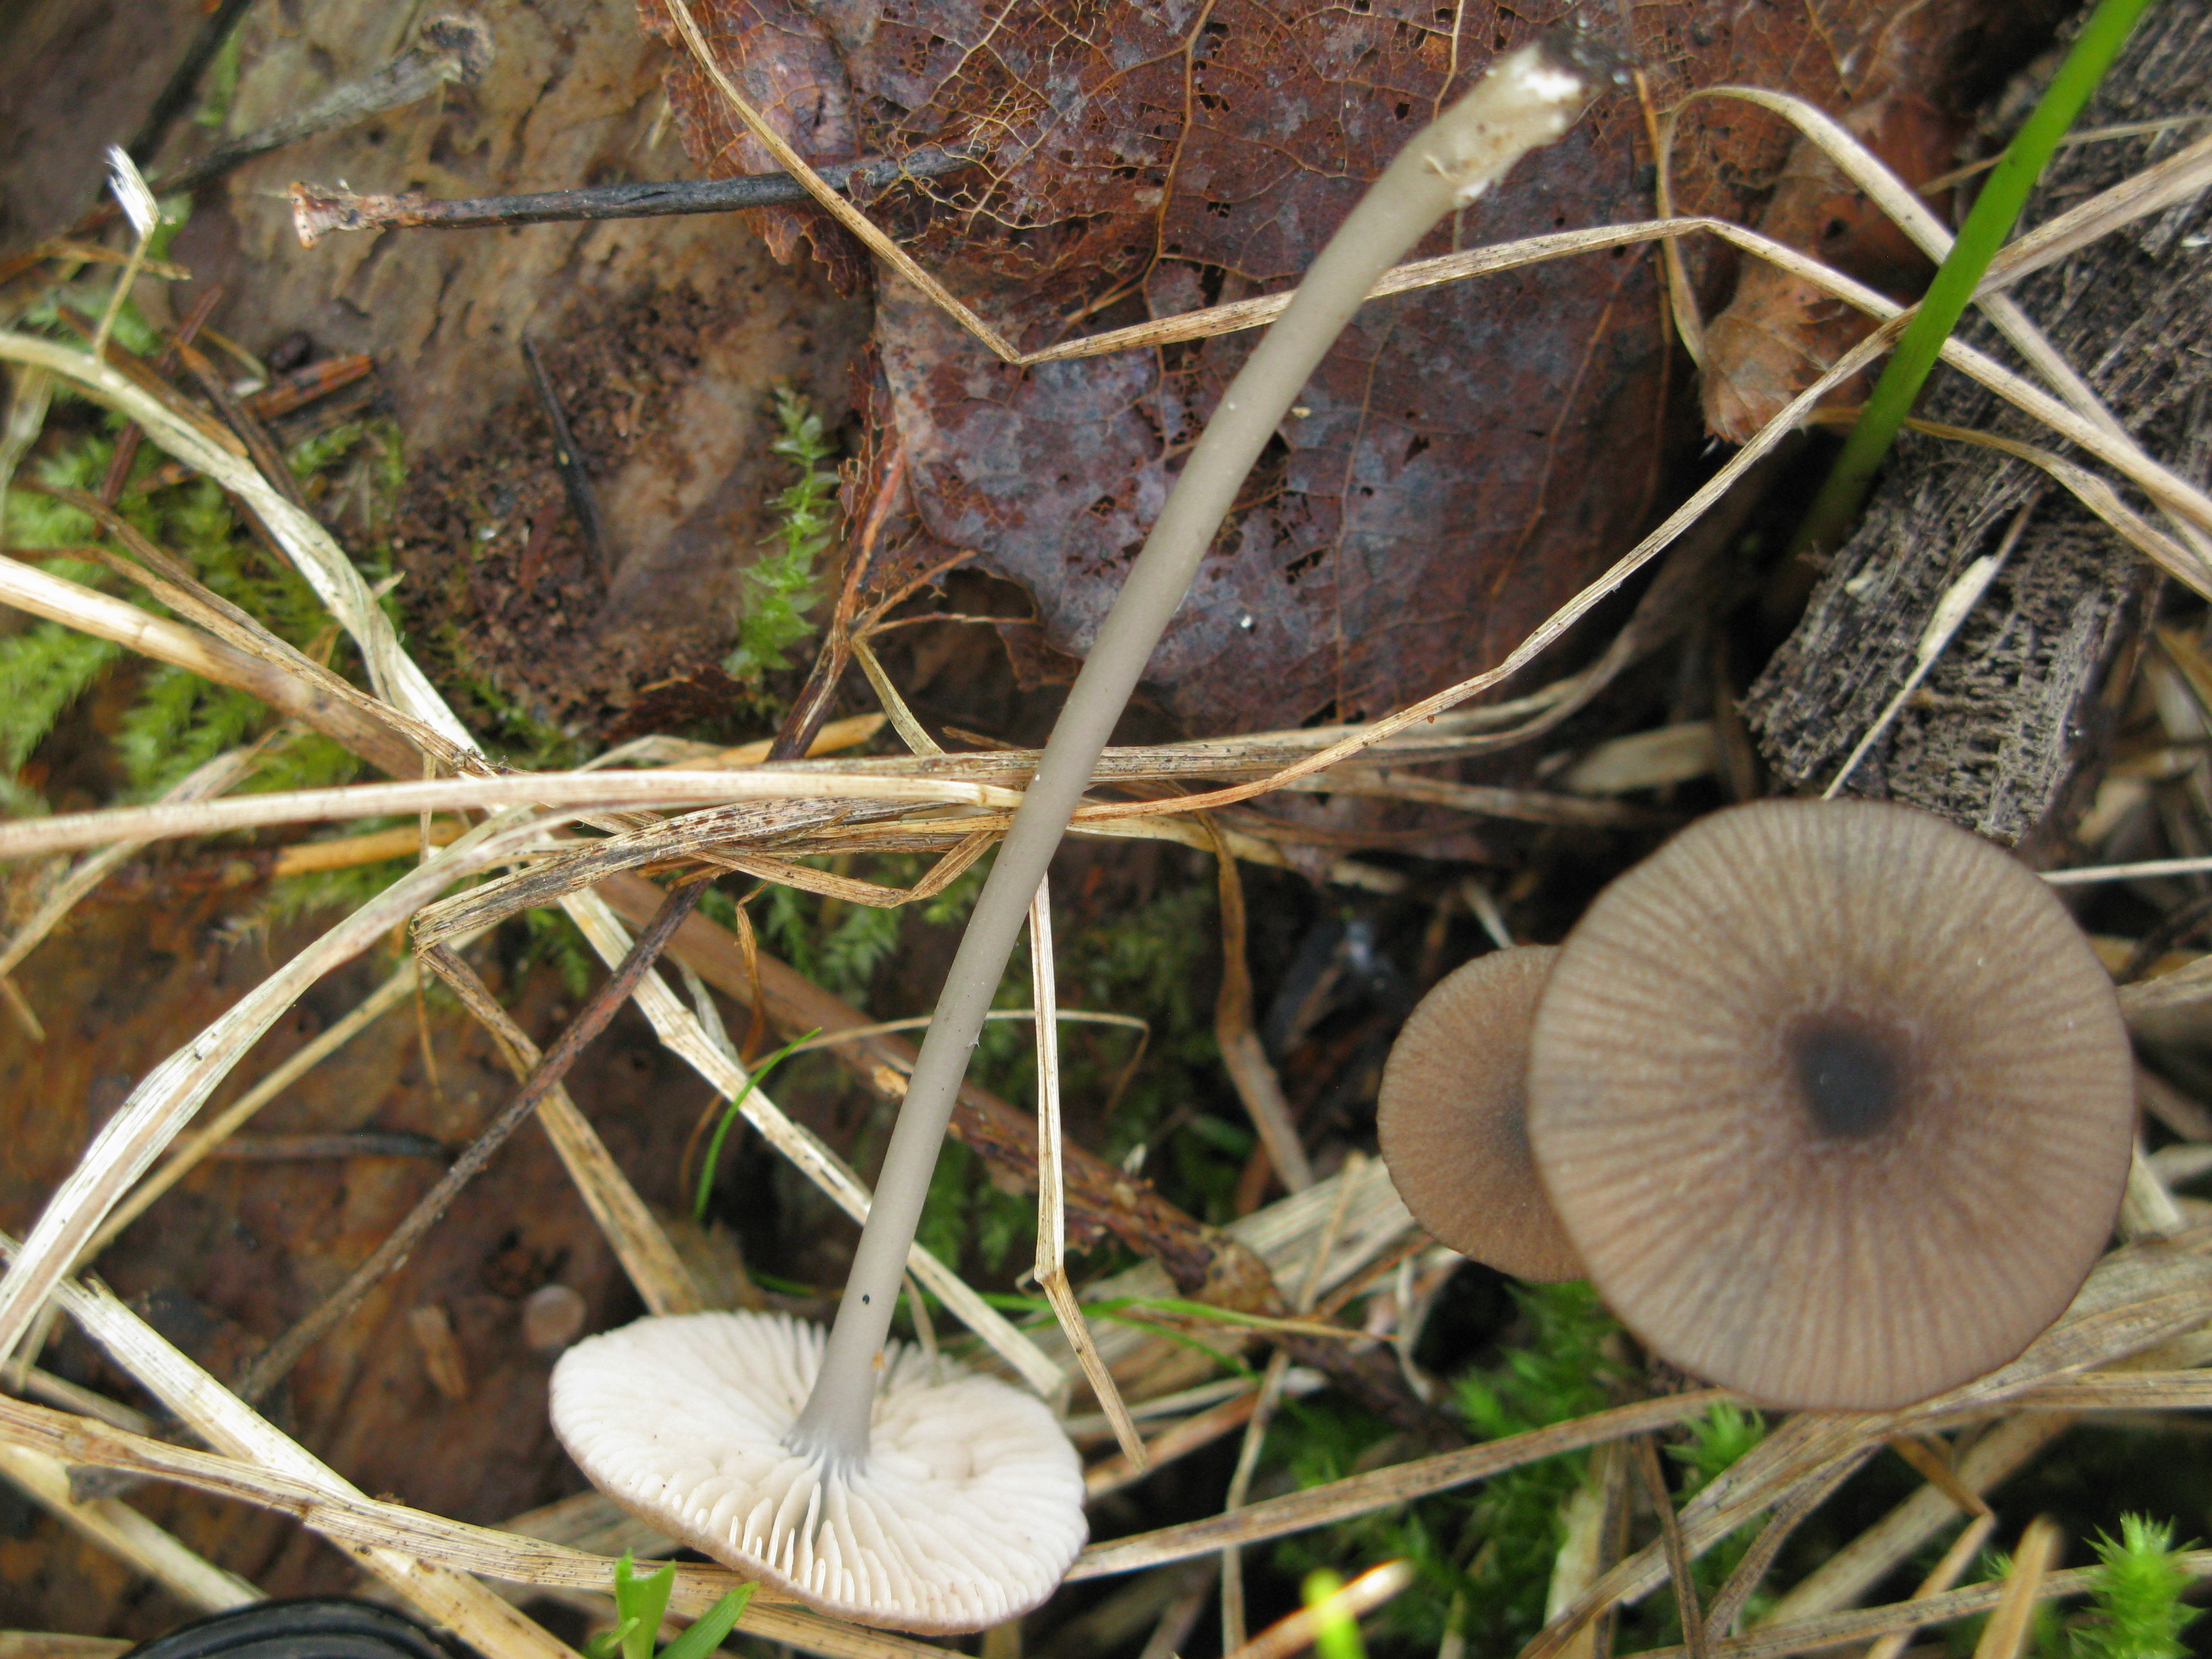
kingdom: Fungi
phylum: Basidiomycota
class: Agaricomycetes
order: Agaricales
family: Entolomataceae
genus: Entoloma
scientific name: Entoloma poliopus
